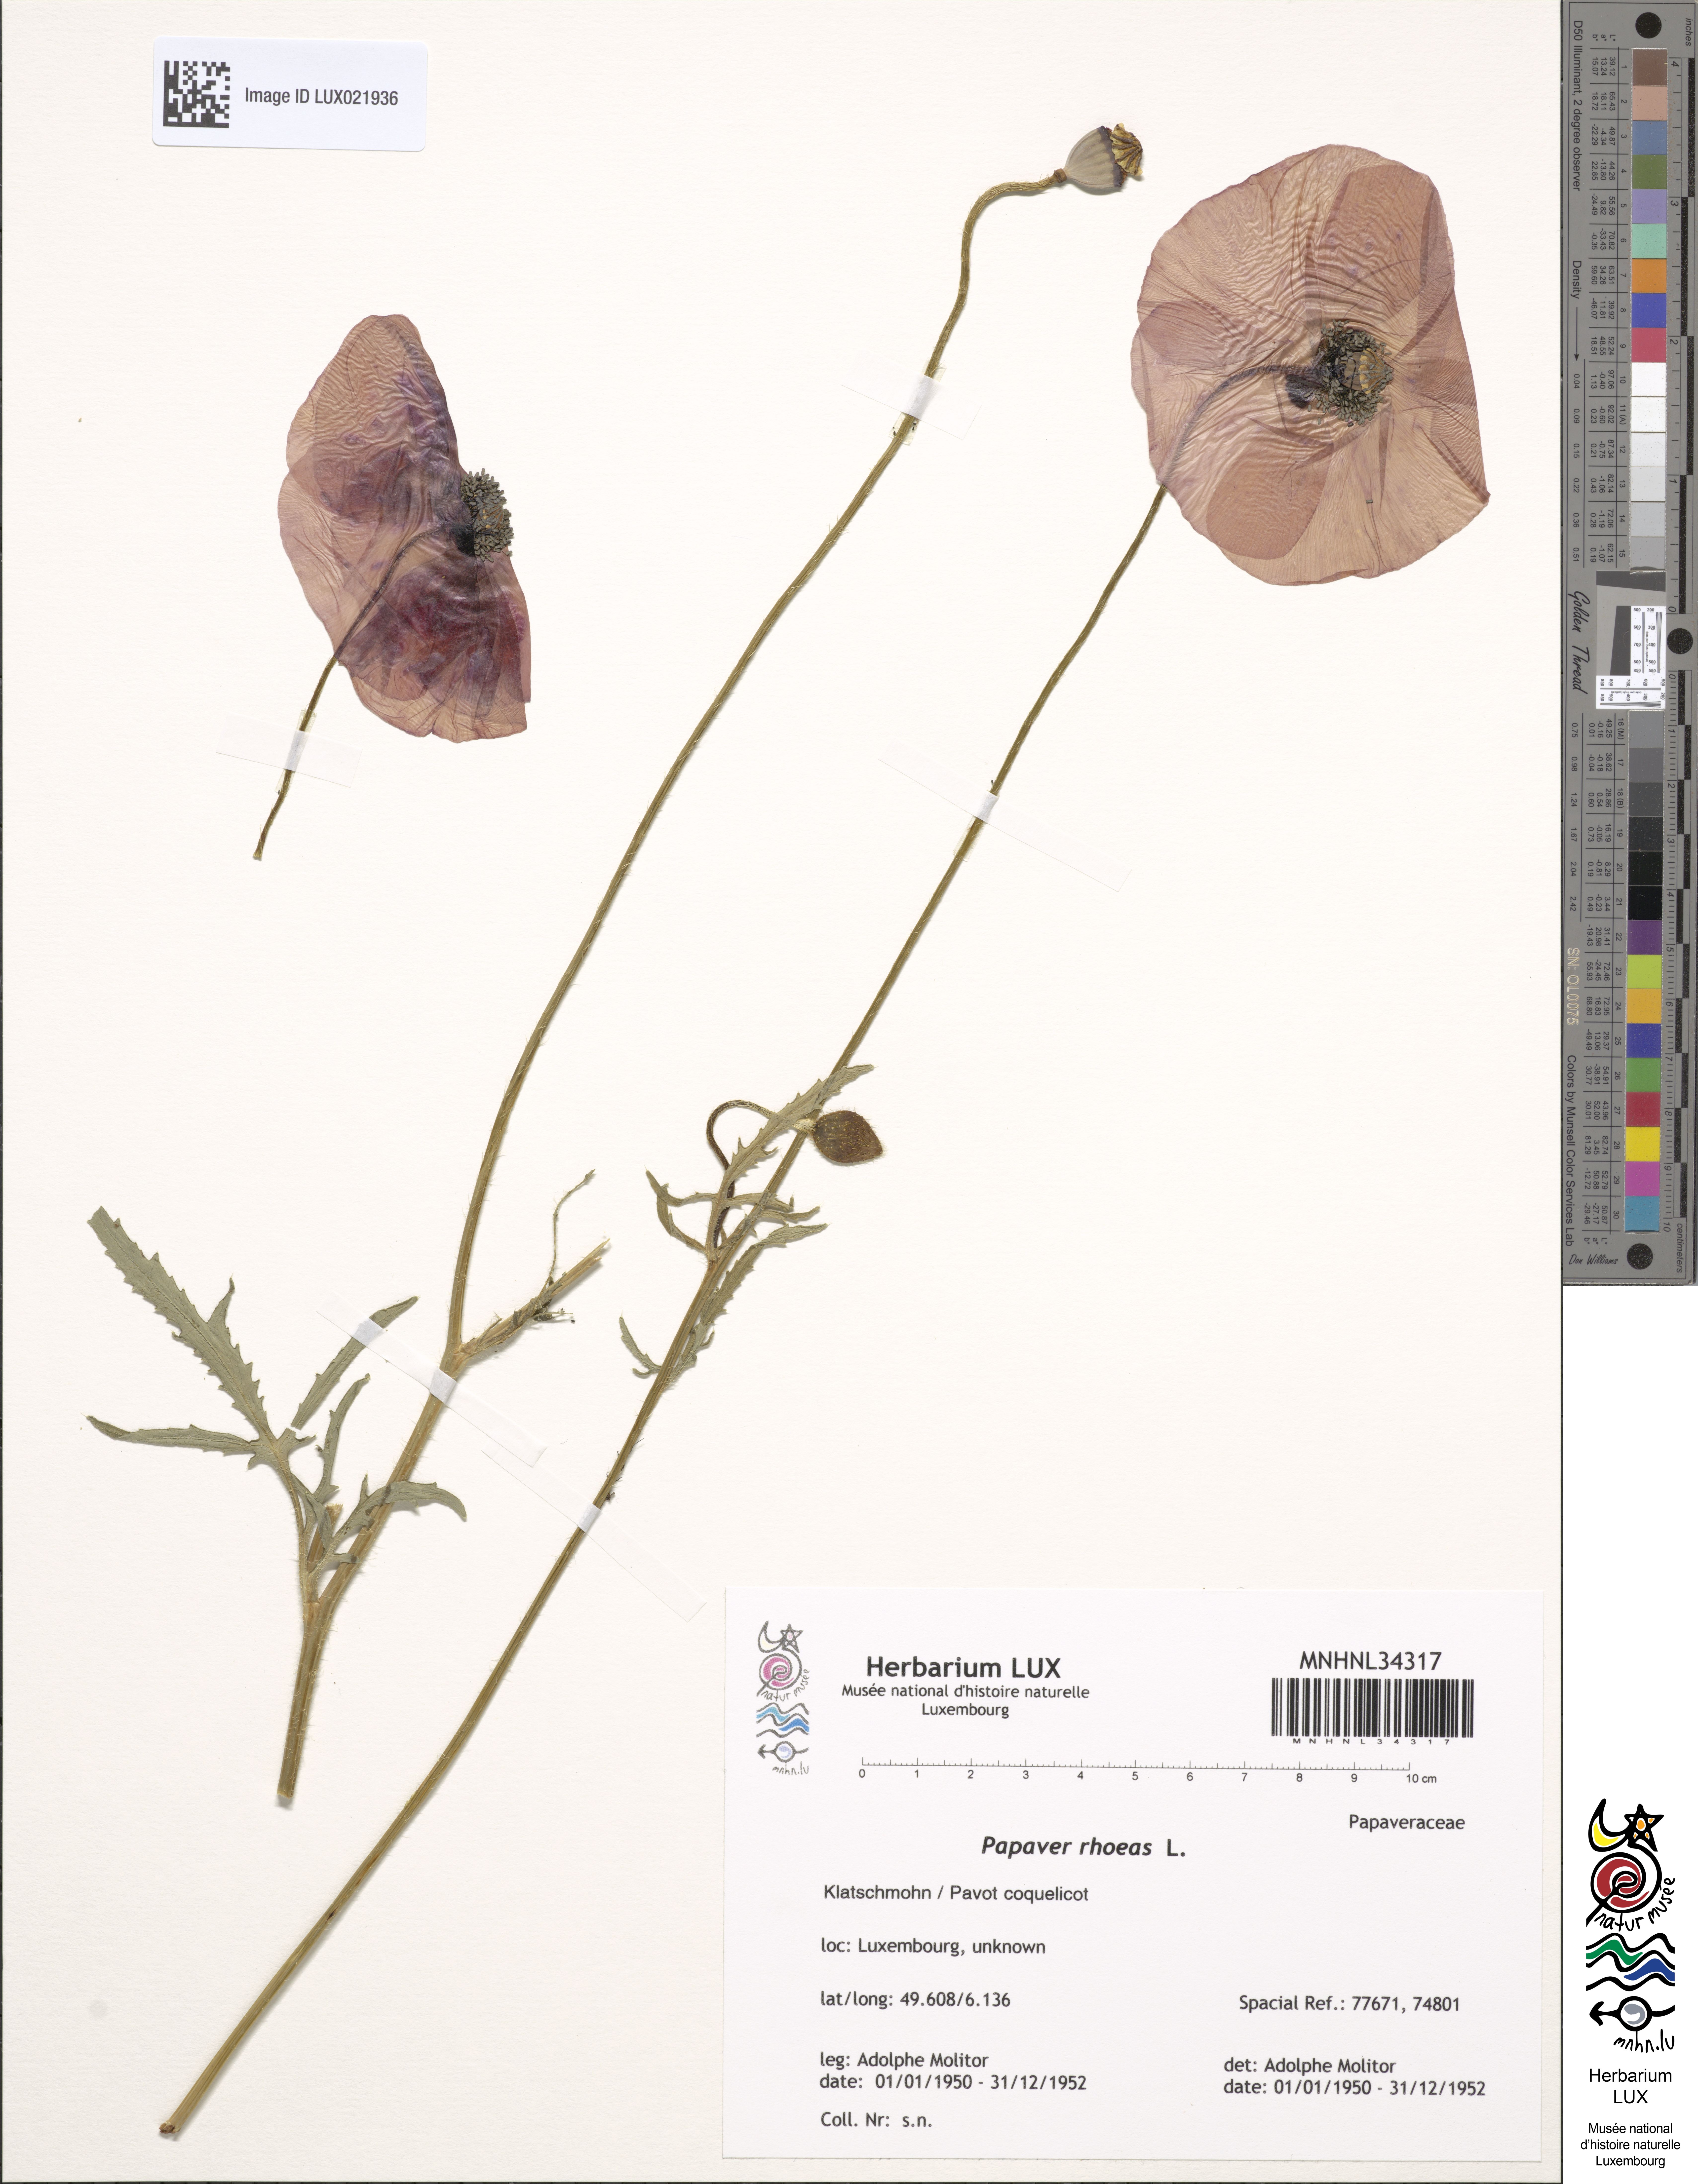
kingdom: Plantae
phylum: Tracheophyta
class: Magnoliopsida
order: Ranunculales
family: Papaveraceae
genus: Papaver
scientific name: Papaver rhoeas
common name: Corn poppy
